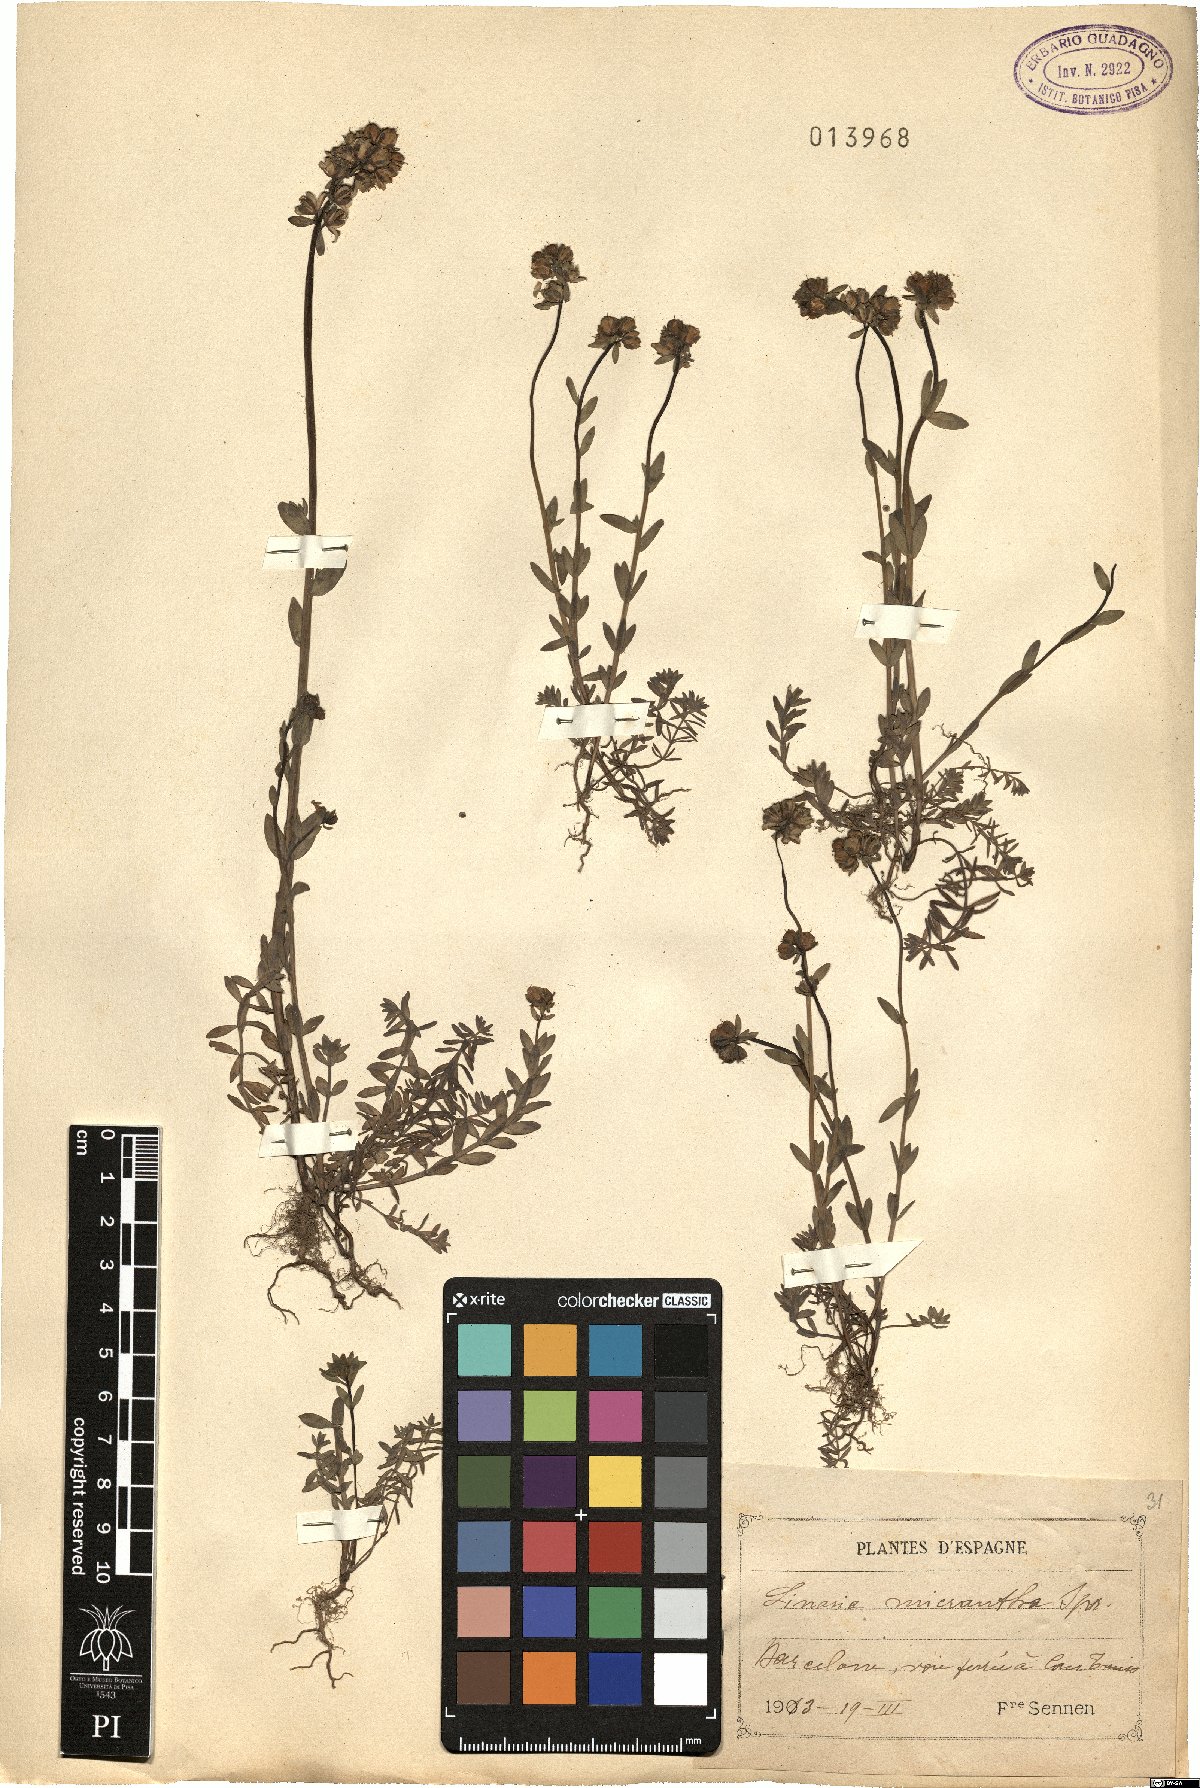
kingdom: Plantae
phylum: Tracheophyta
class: Magnoliopsida
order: Lamiales
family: Plantaginaceae
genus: Linaria
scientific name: Linaria micrantha
